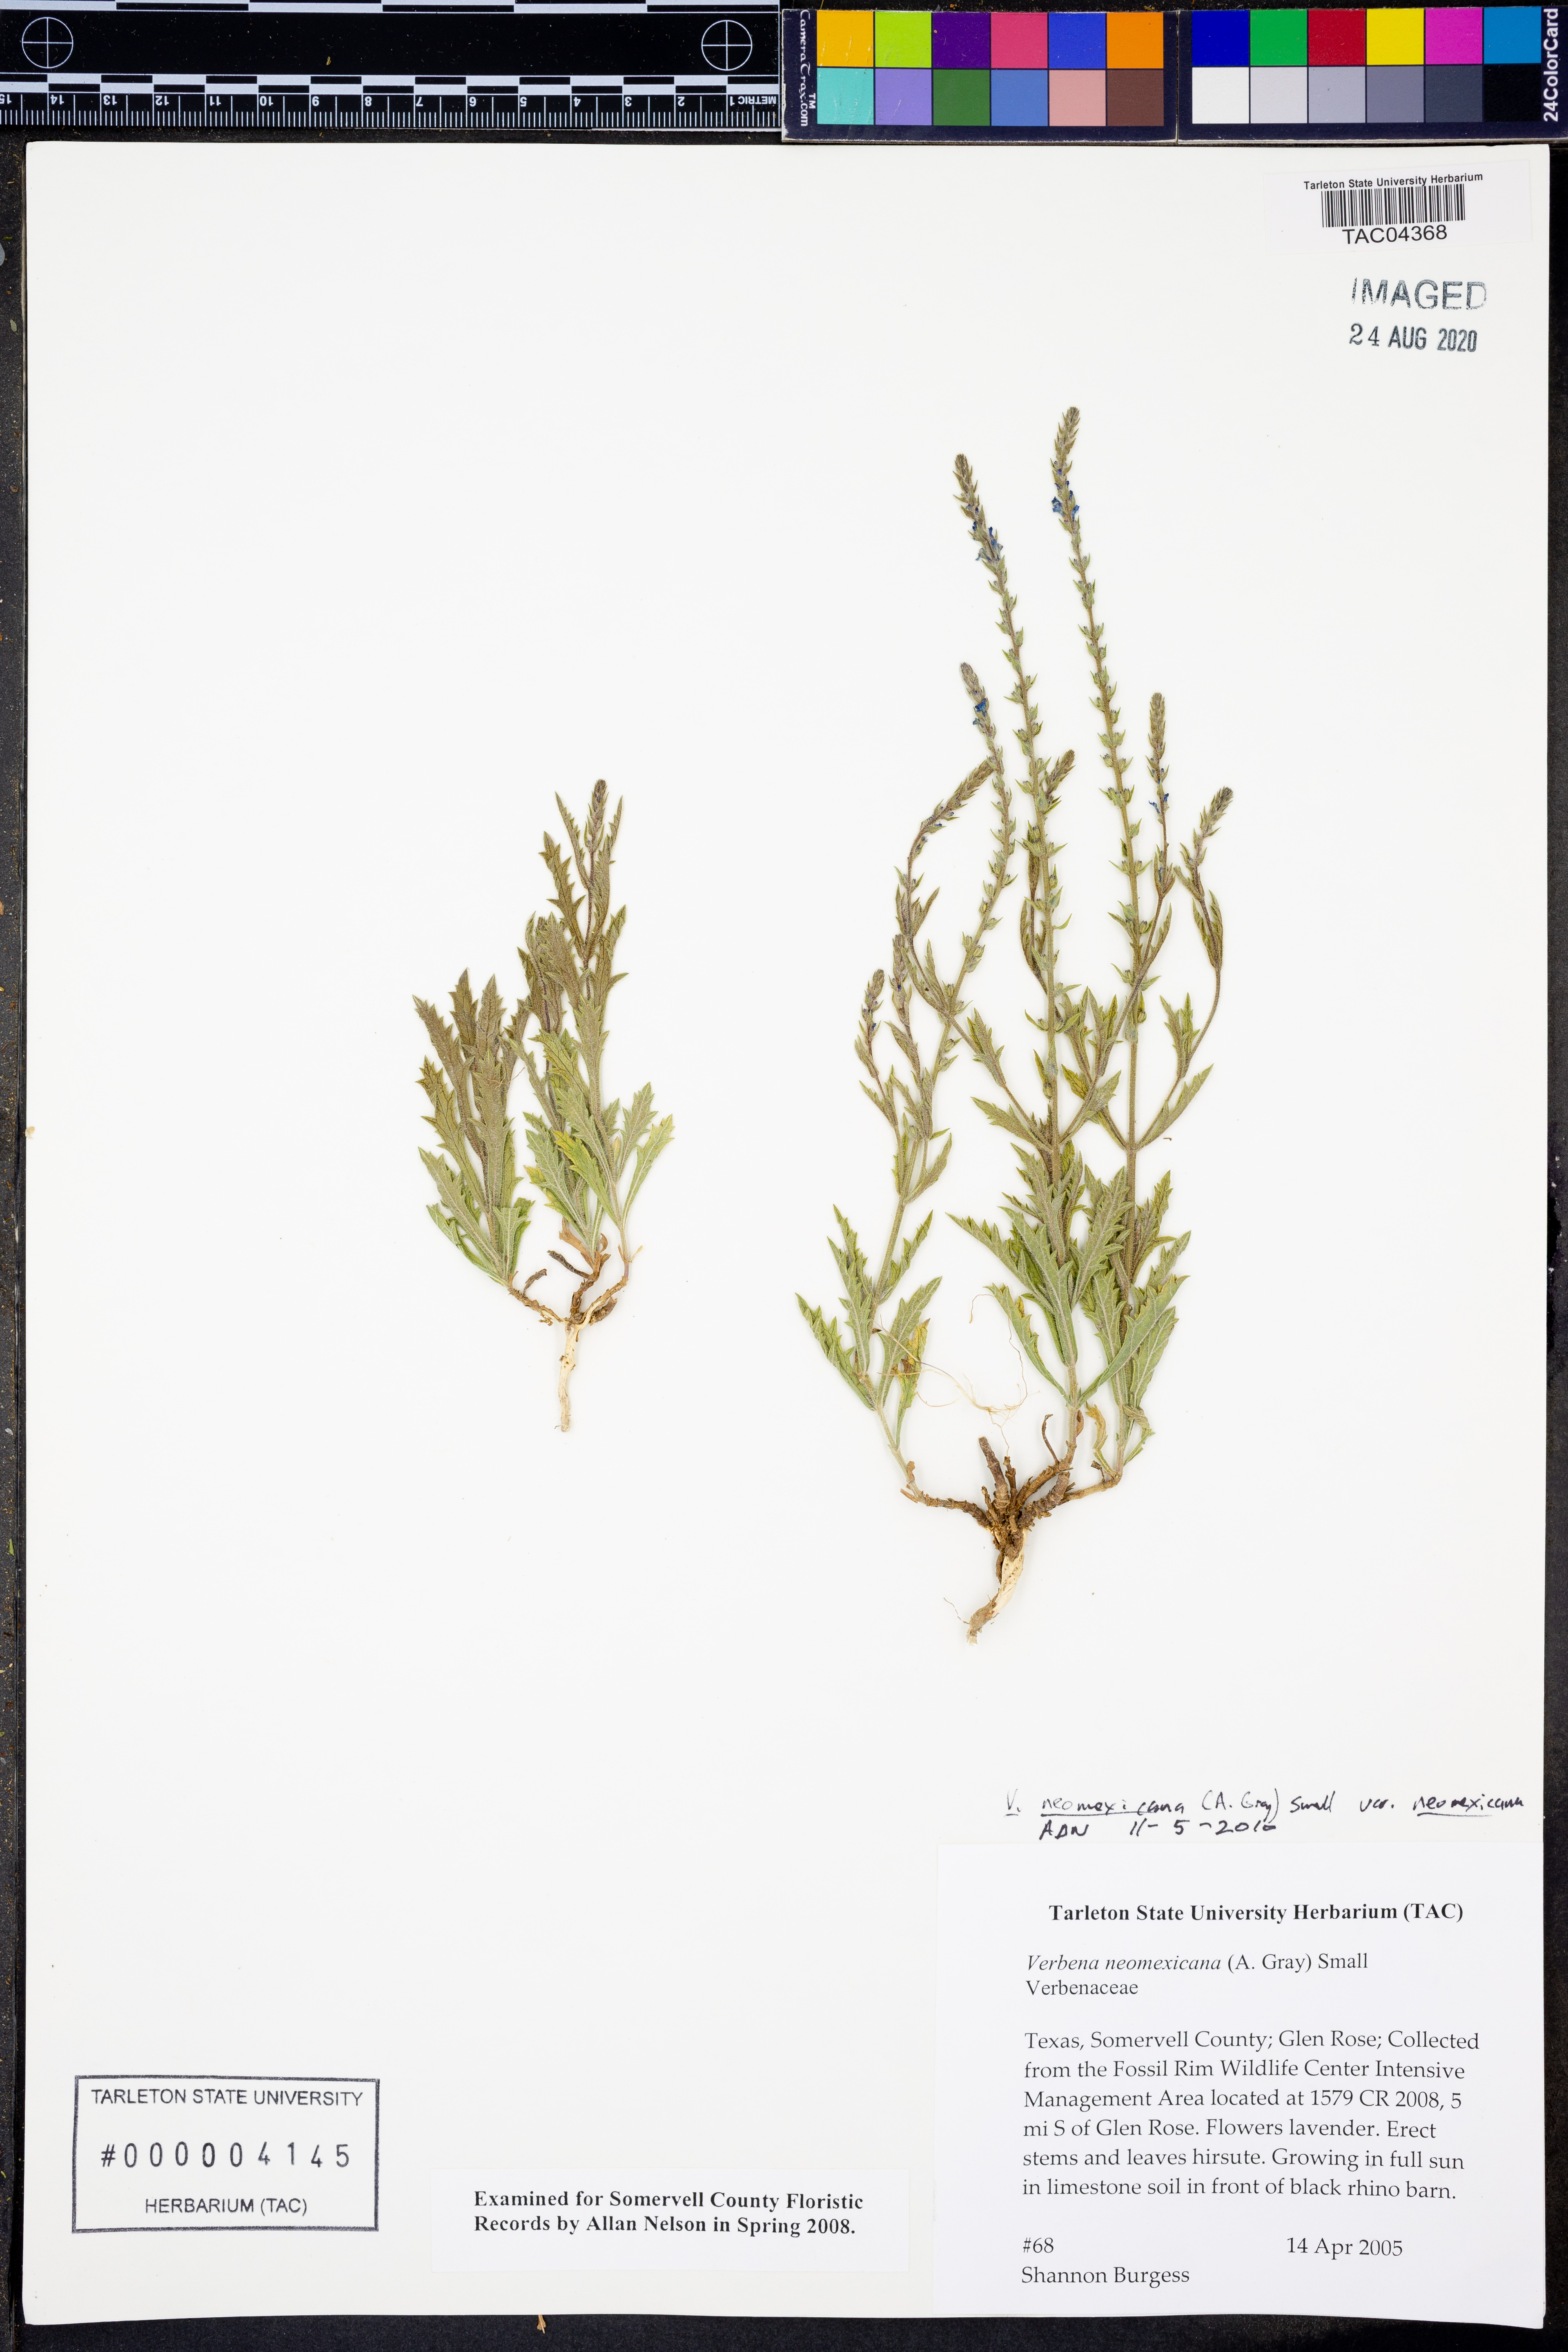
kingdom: Plantae
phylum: Tracheophyta
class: Magnoliopsida
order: Lamiales
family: Verbenaceae
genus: Verbena
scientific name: Verbena neomexicana
